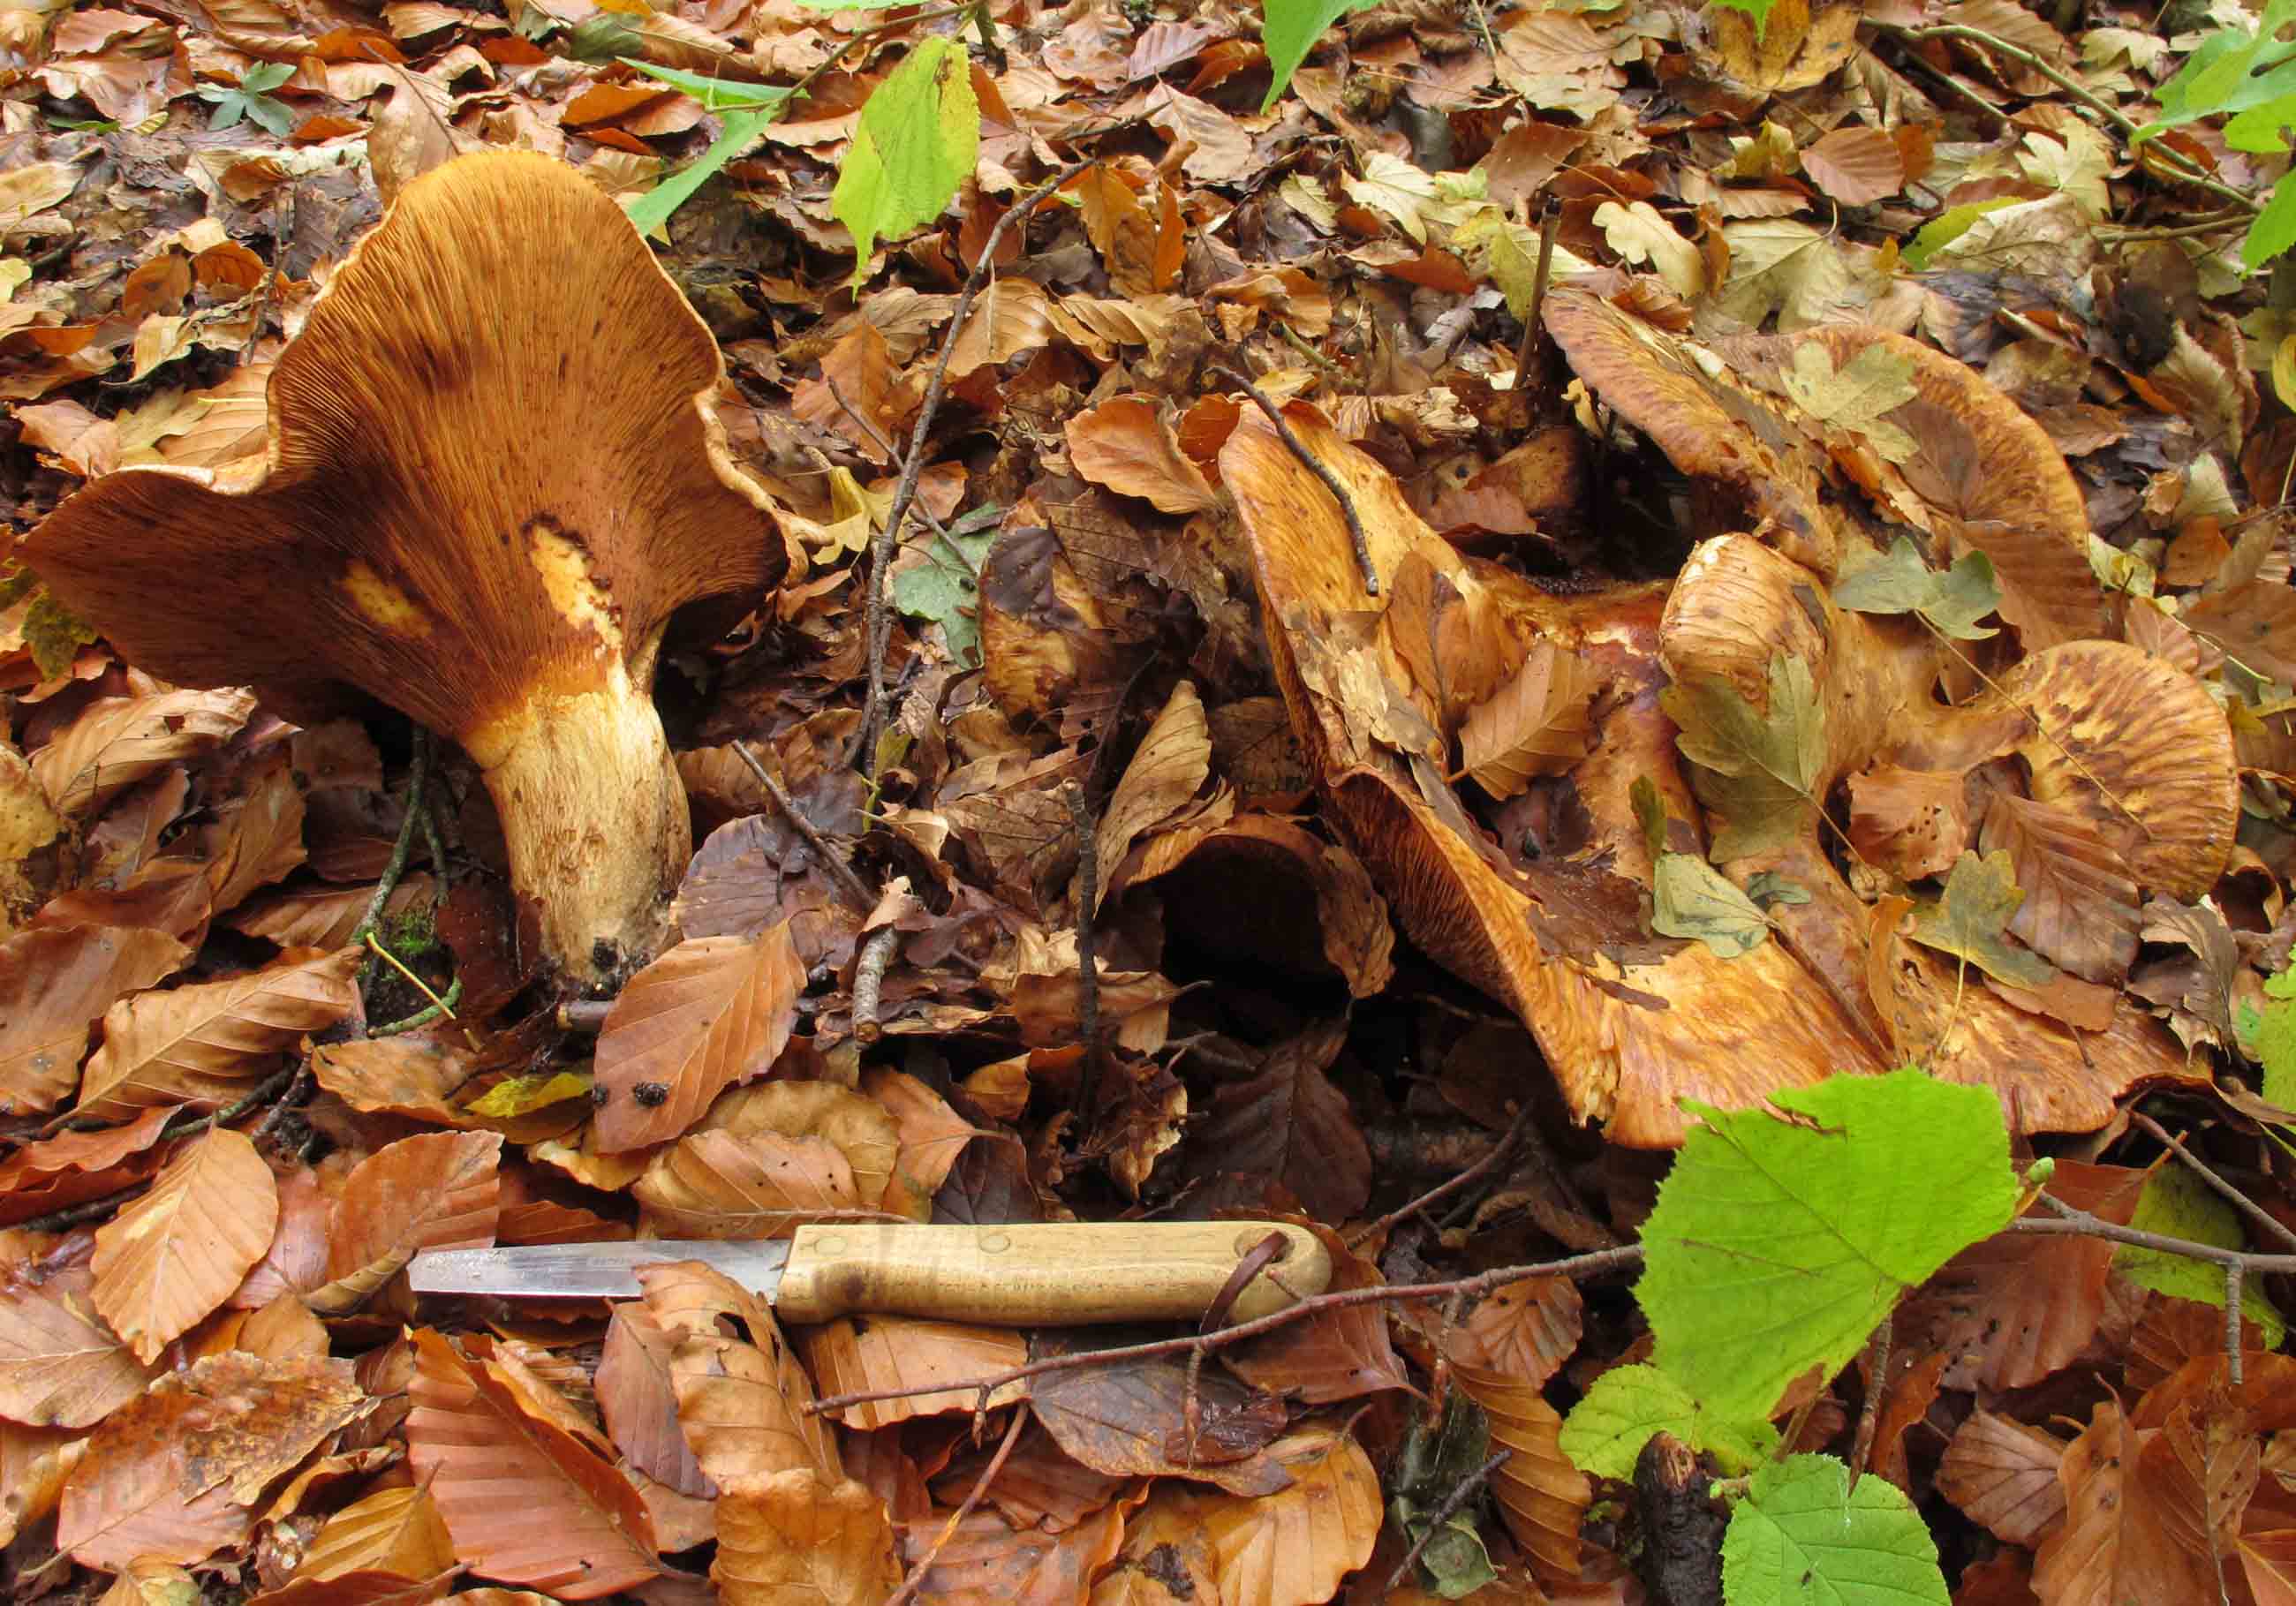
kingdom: Fungi
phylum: Basidiomycota
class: Agaricomycetes
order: Boletales
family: Paxillaceae
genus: Paxillus
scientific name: Paxillus obscurisporus
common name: mahognisporet netbladhat
